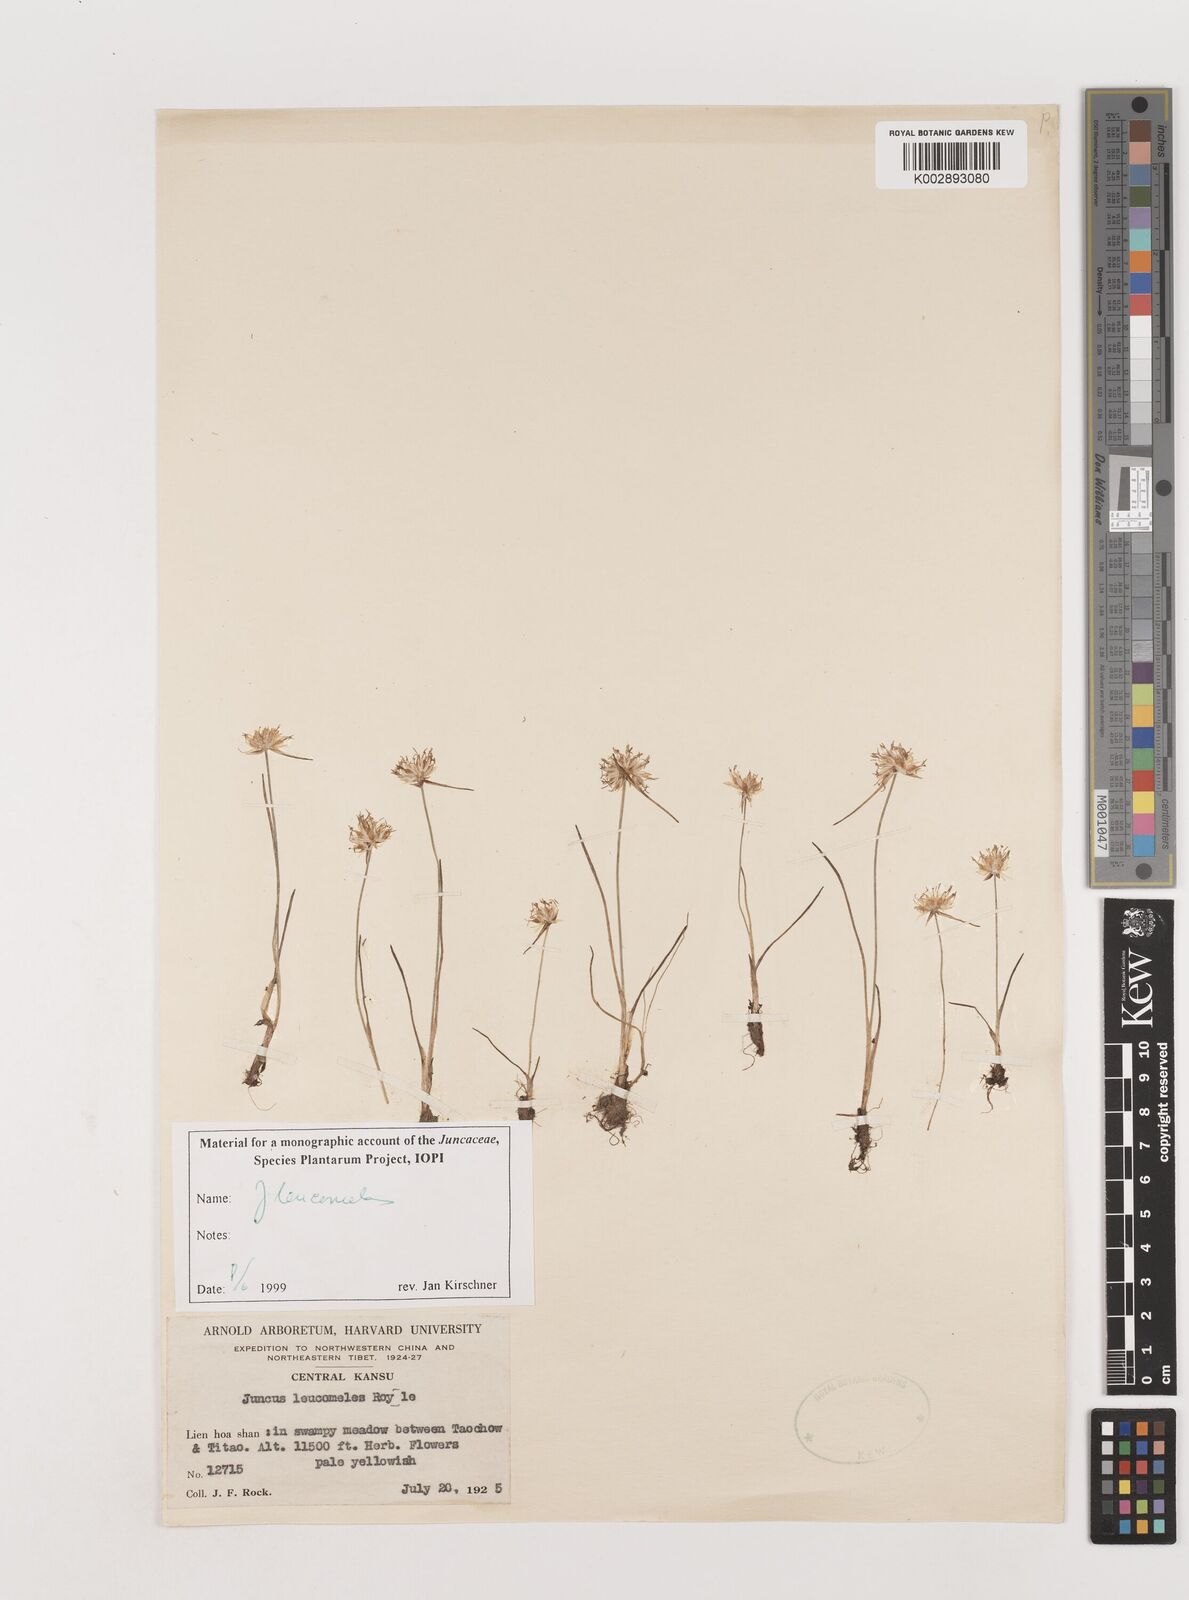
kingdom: Plantae
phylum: Tracheophyta
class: Liliopsida
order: Poales
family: Juncaceae
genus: Juncus
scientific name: Juncus leucomelas
